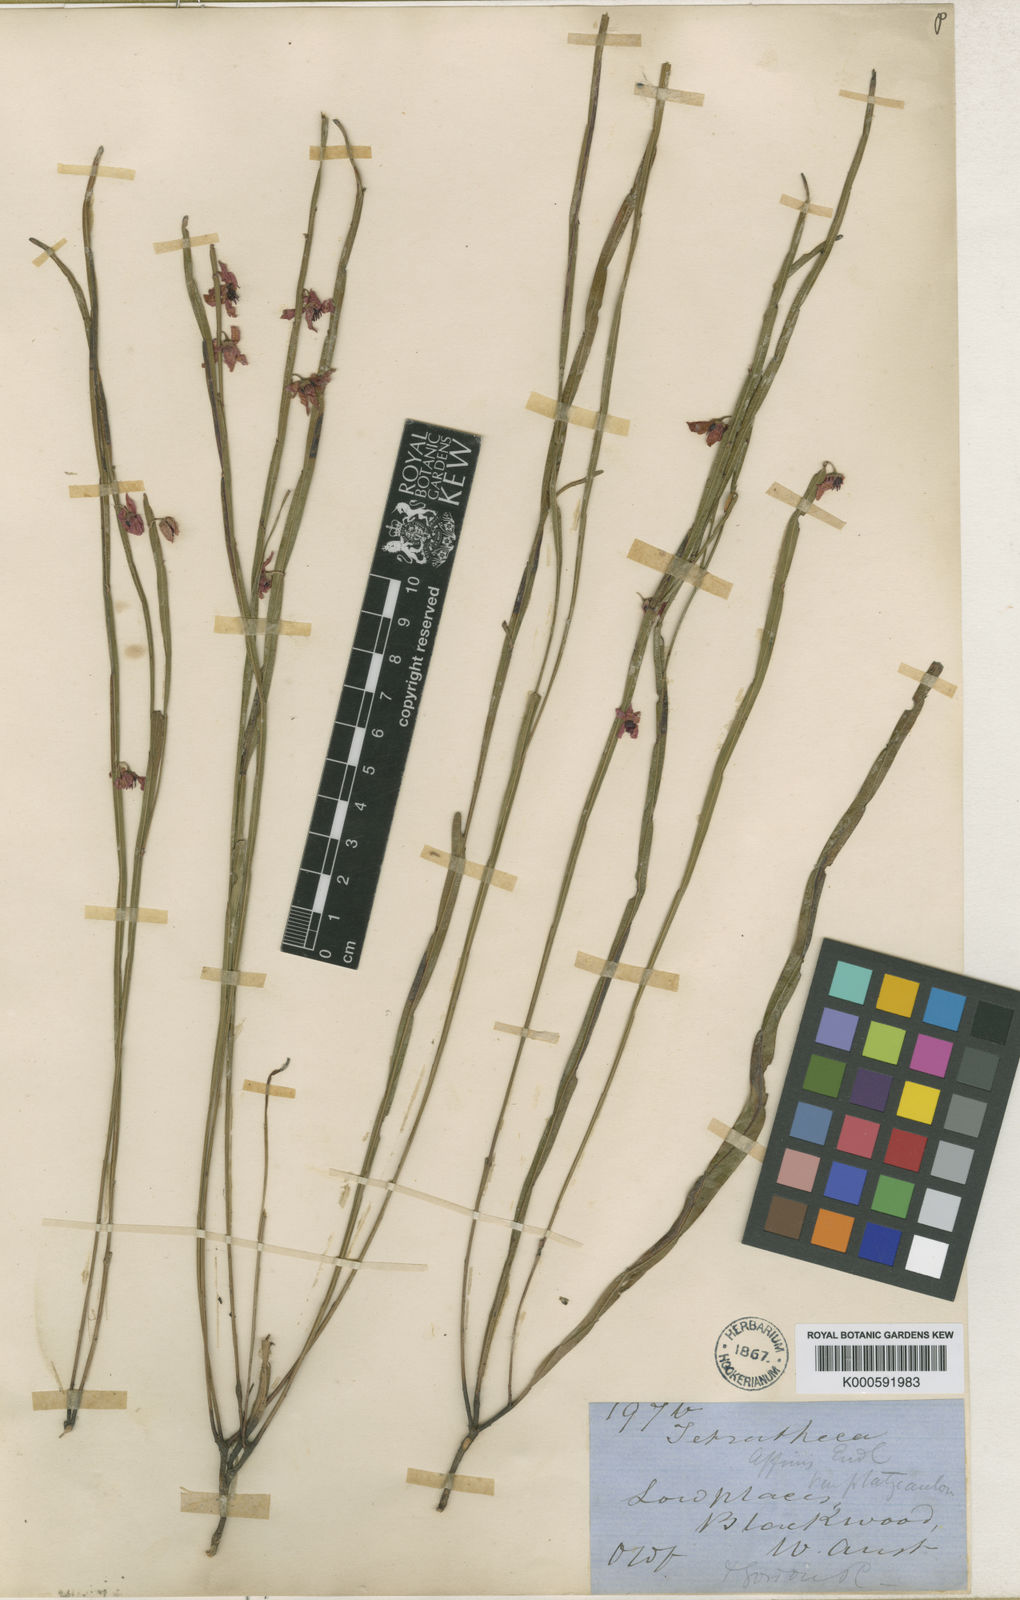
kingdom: Plantae
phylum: Tracheophyta
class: Magnoliopsida
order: Oxalidales
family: Elaeocarpaceae
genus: Tetratheca
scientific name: Tetratheca affinis
